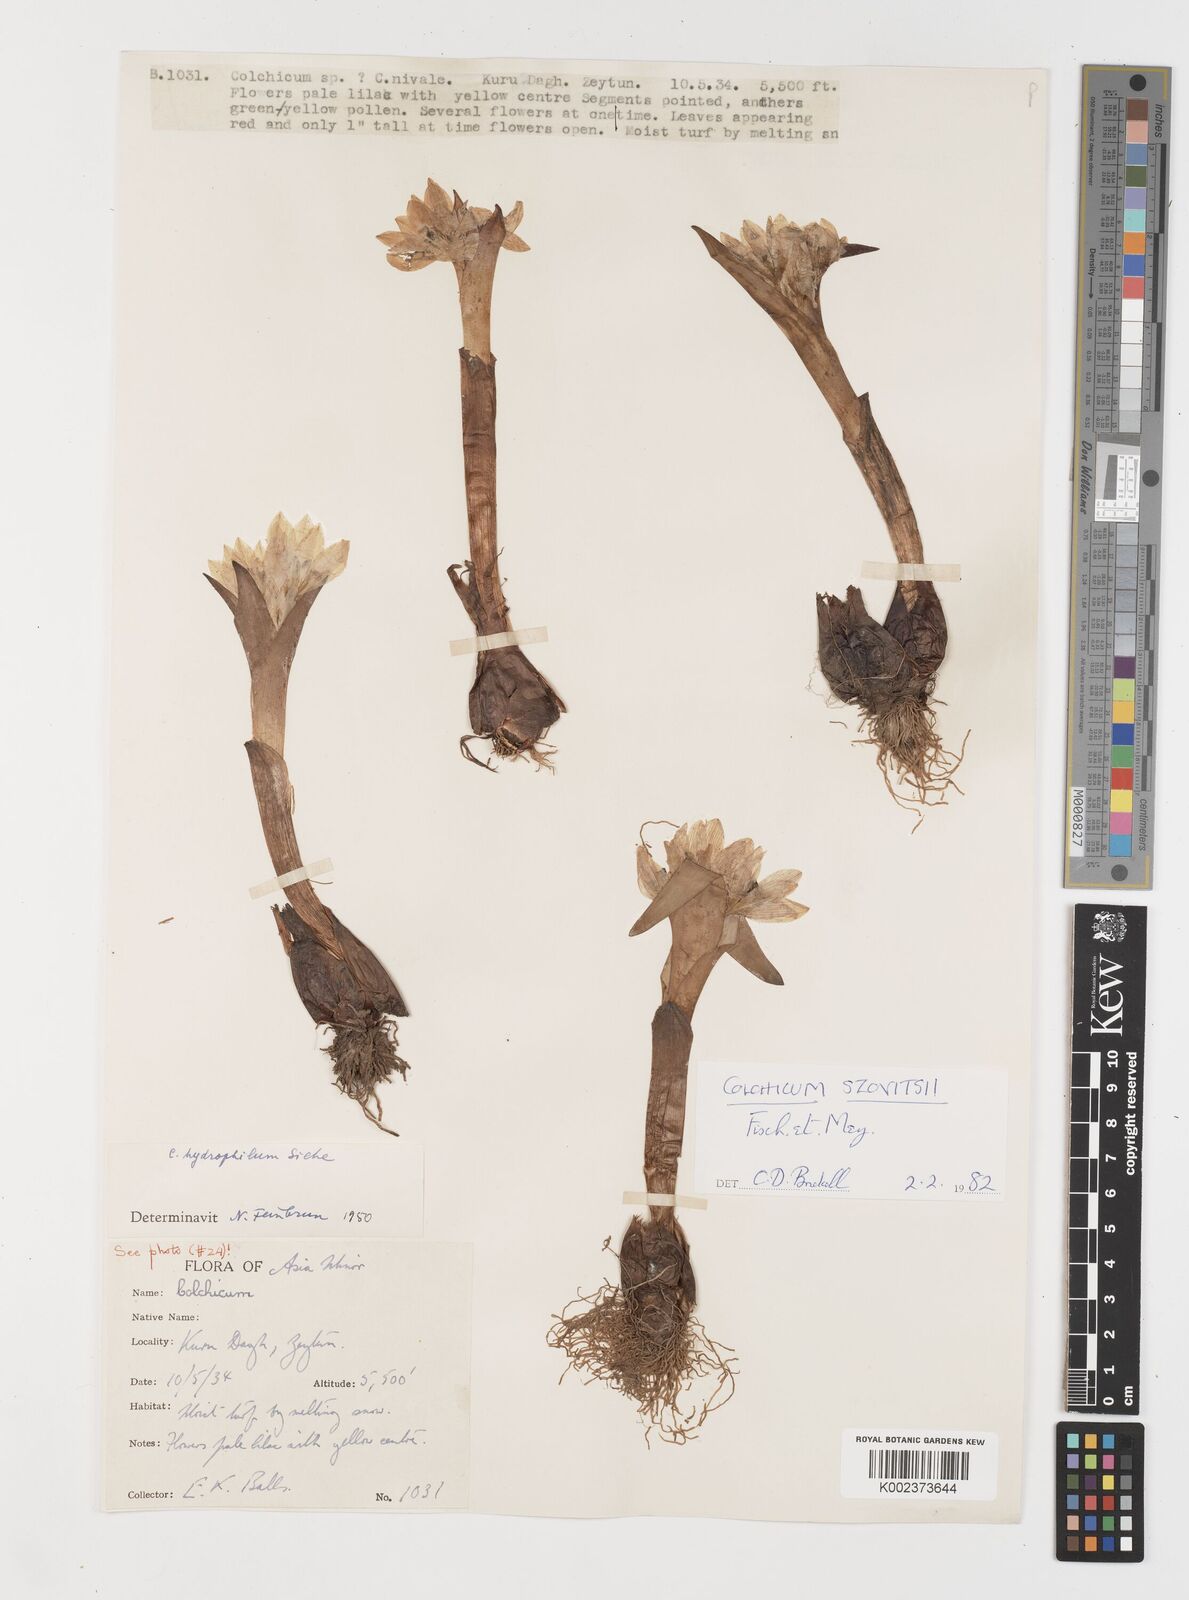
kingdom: Plantae
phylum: Tracheophyta
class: Liliopsida
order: Liliales
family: Colchicaceae
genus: Colchicum
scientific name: Colchicum szovitsii
